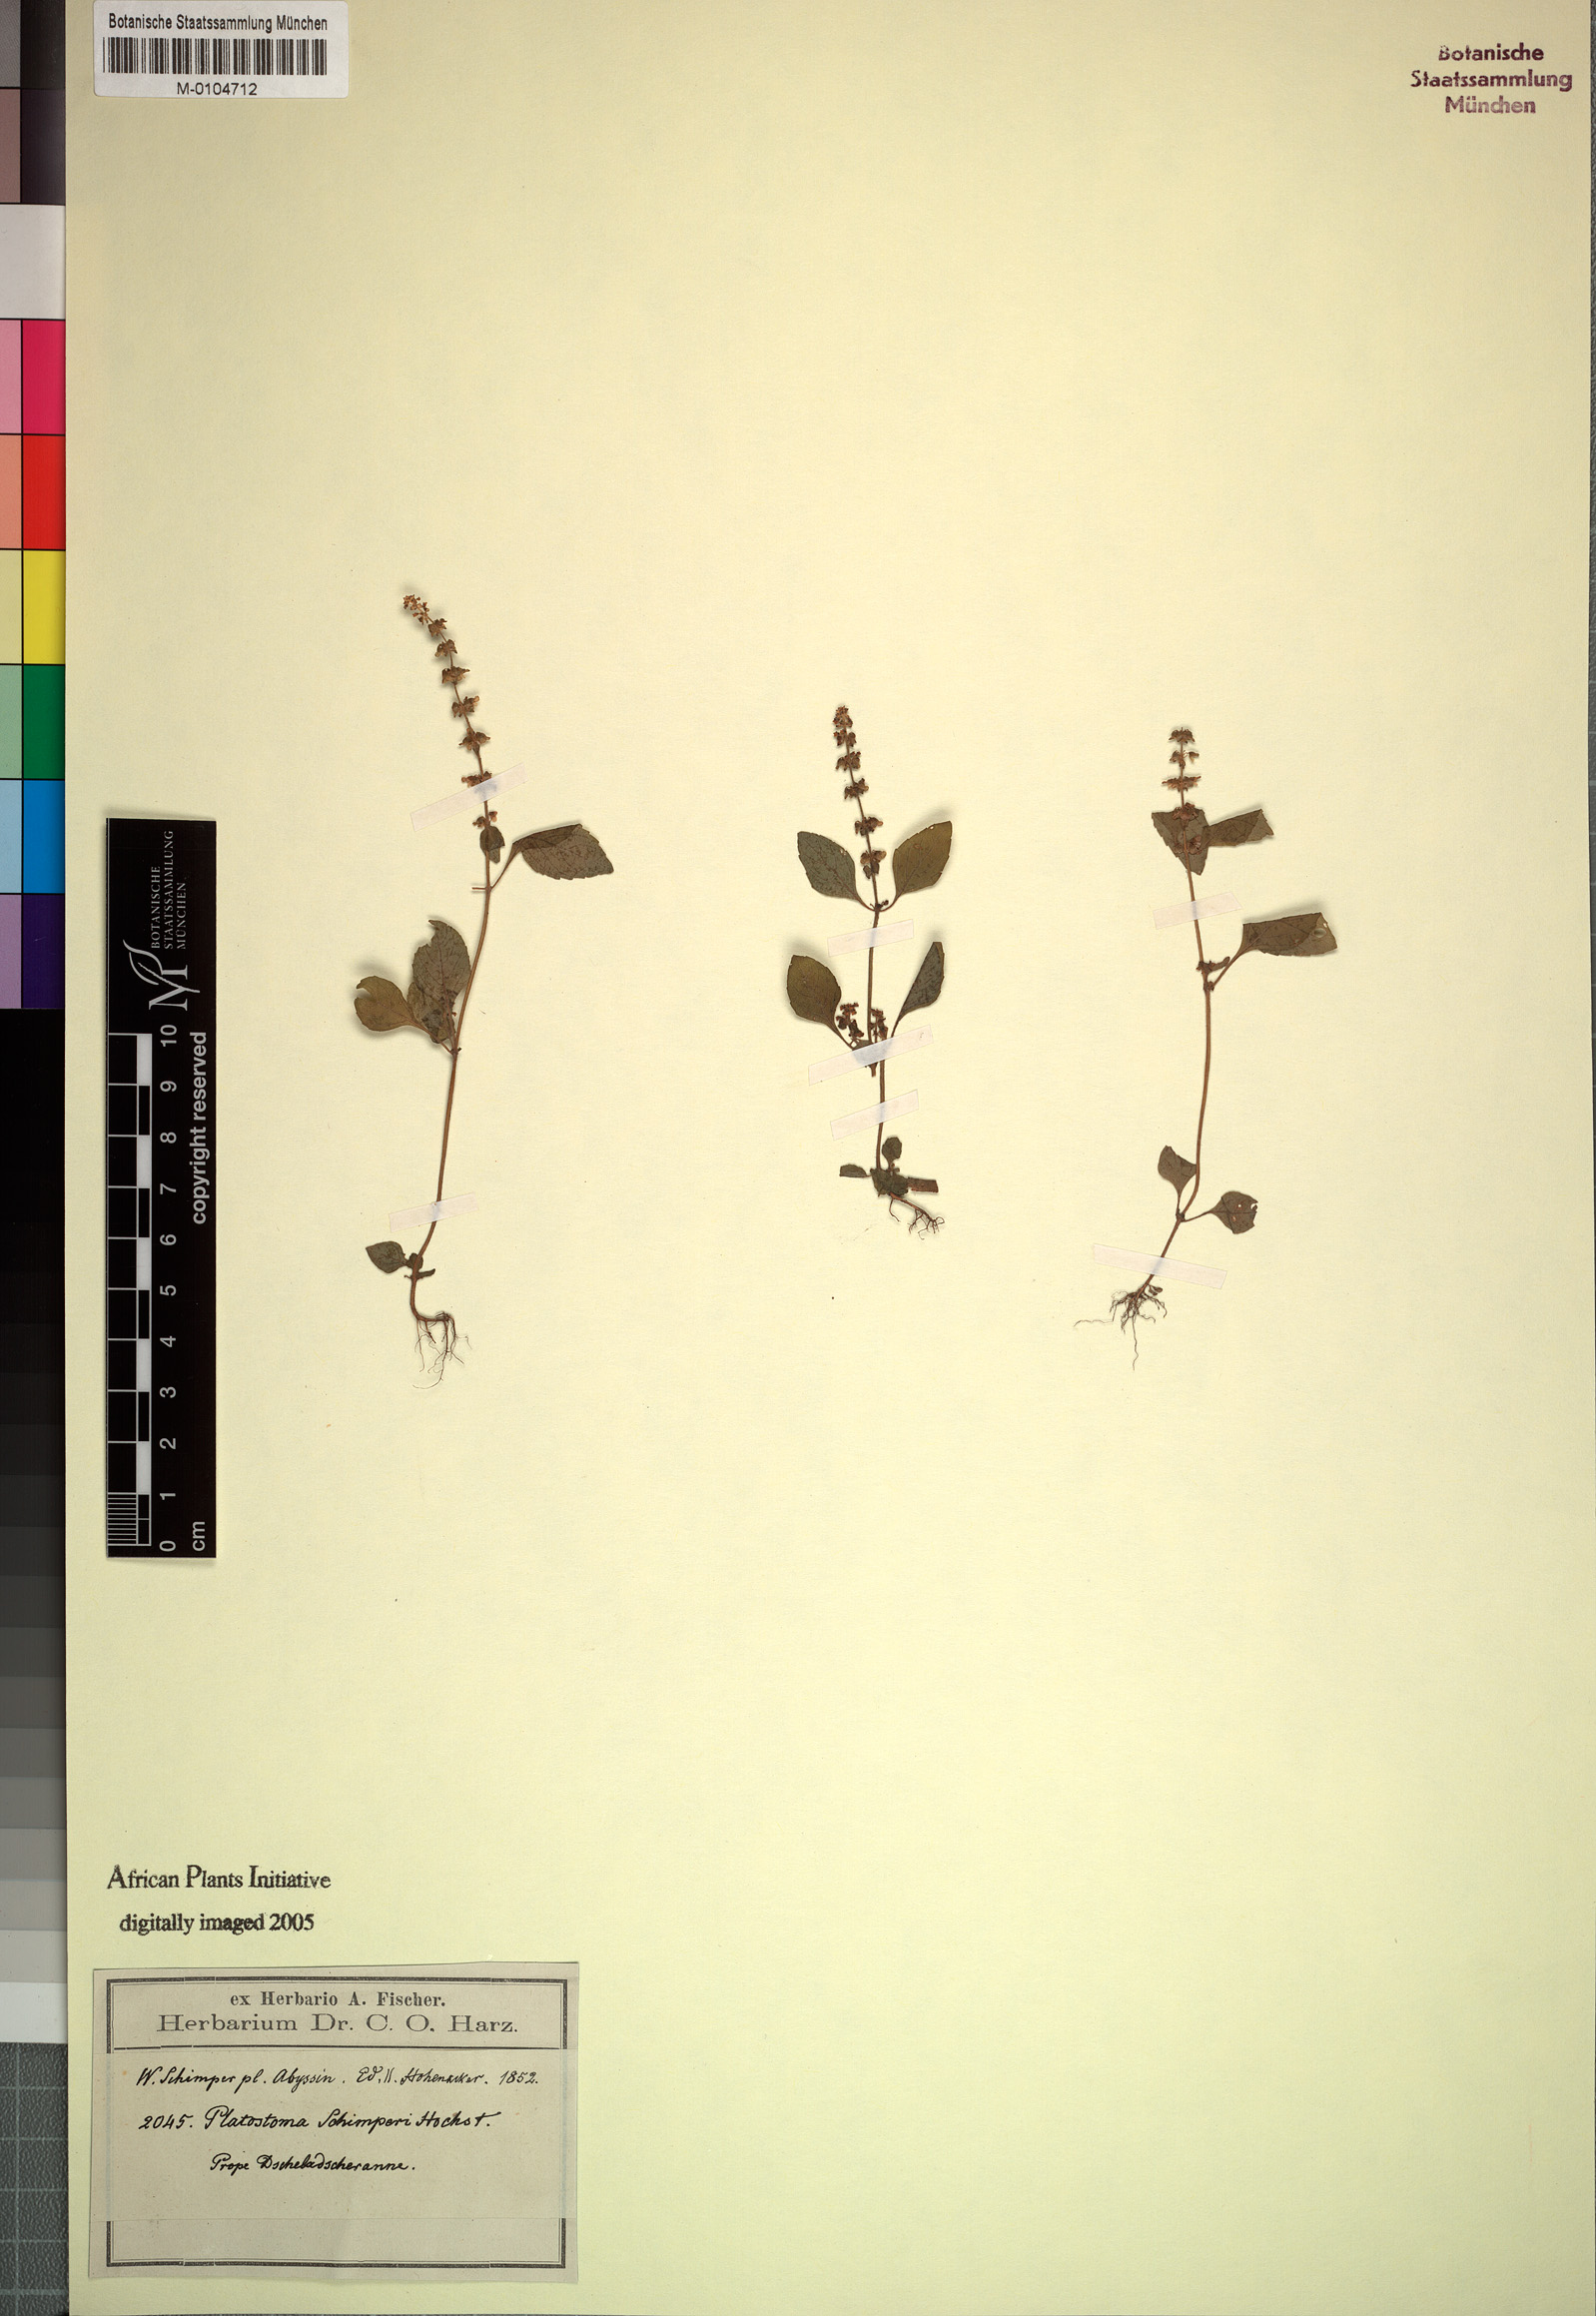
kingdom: Plantae
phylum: Tracheophyta
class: Magnoliopsida
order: Lamiales
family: Lamiaceae
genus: Platostoma
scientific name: Platostoma
